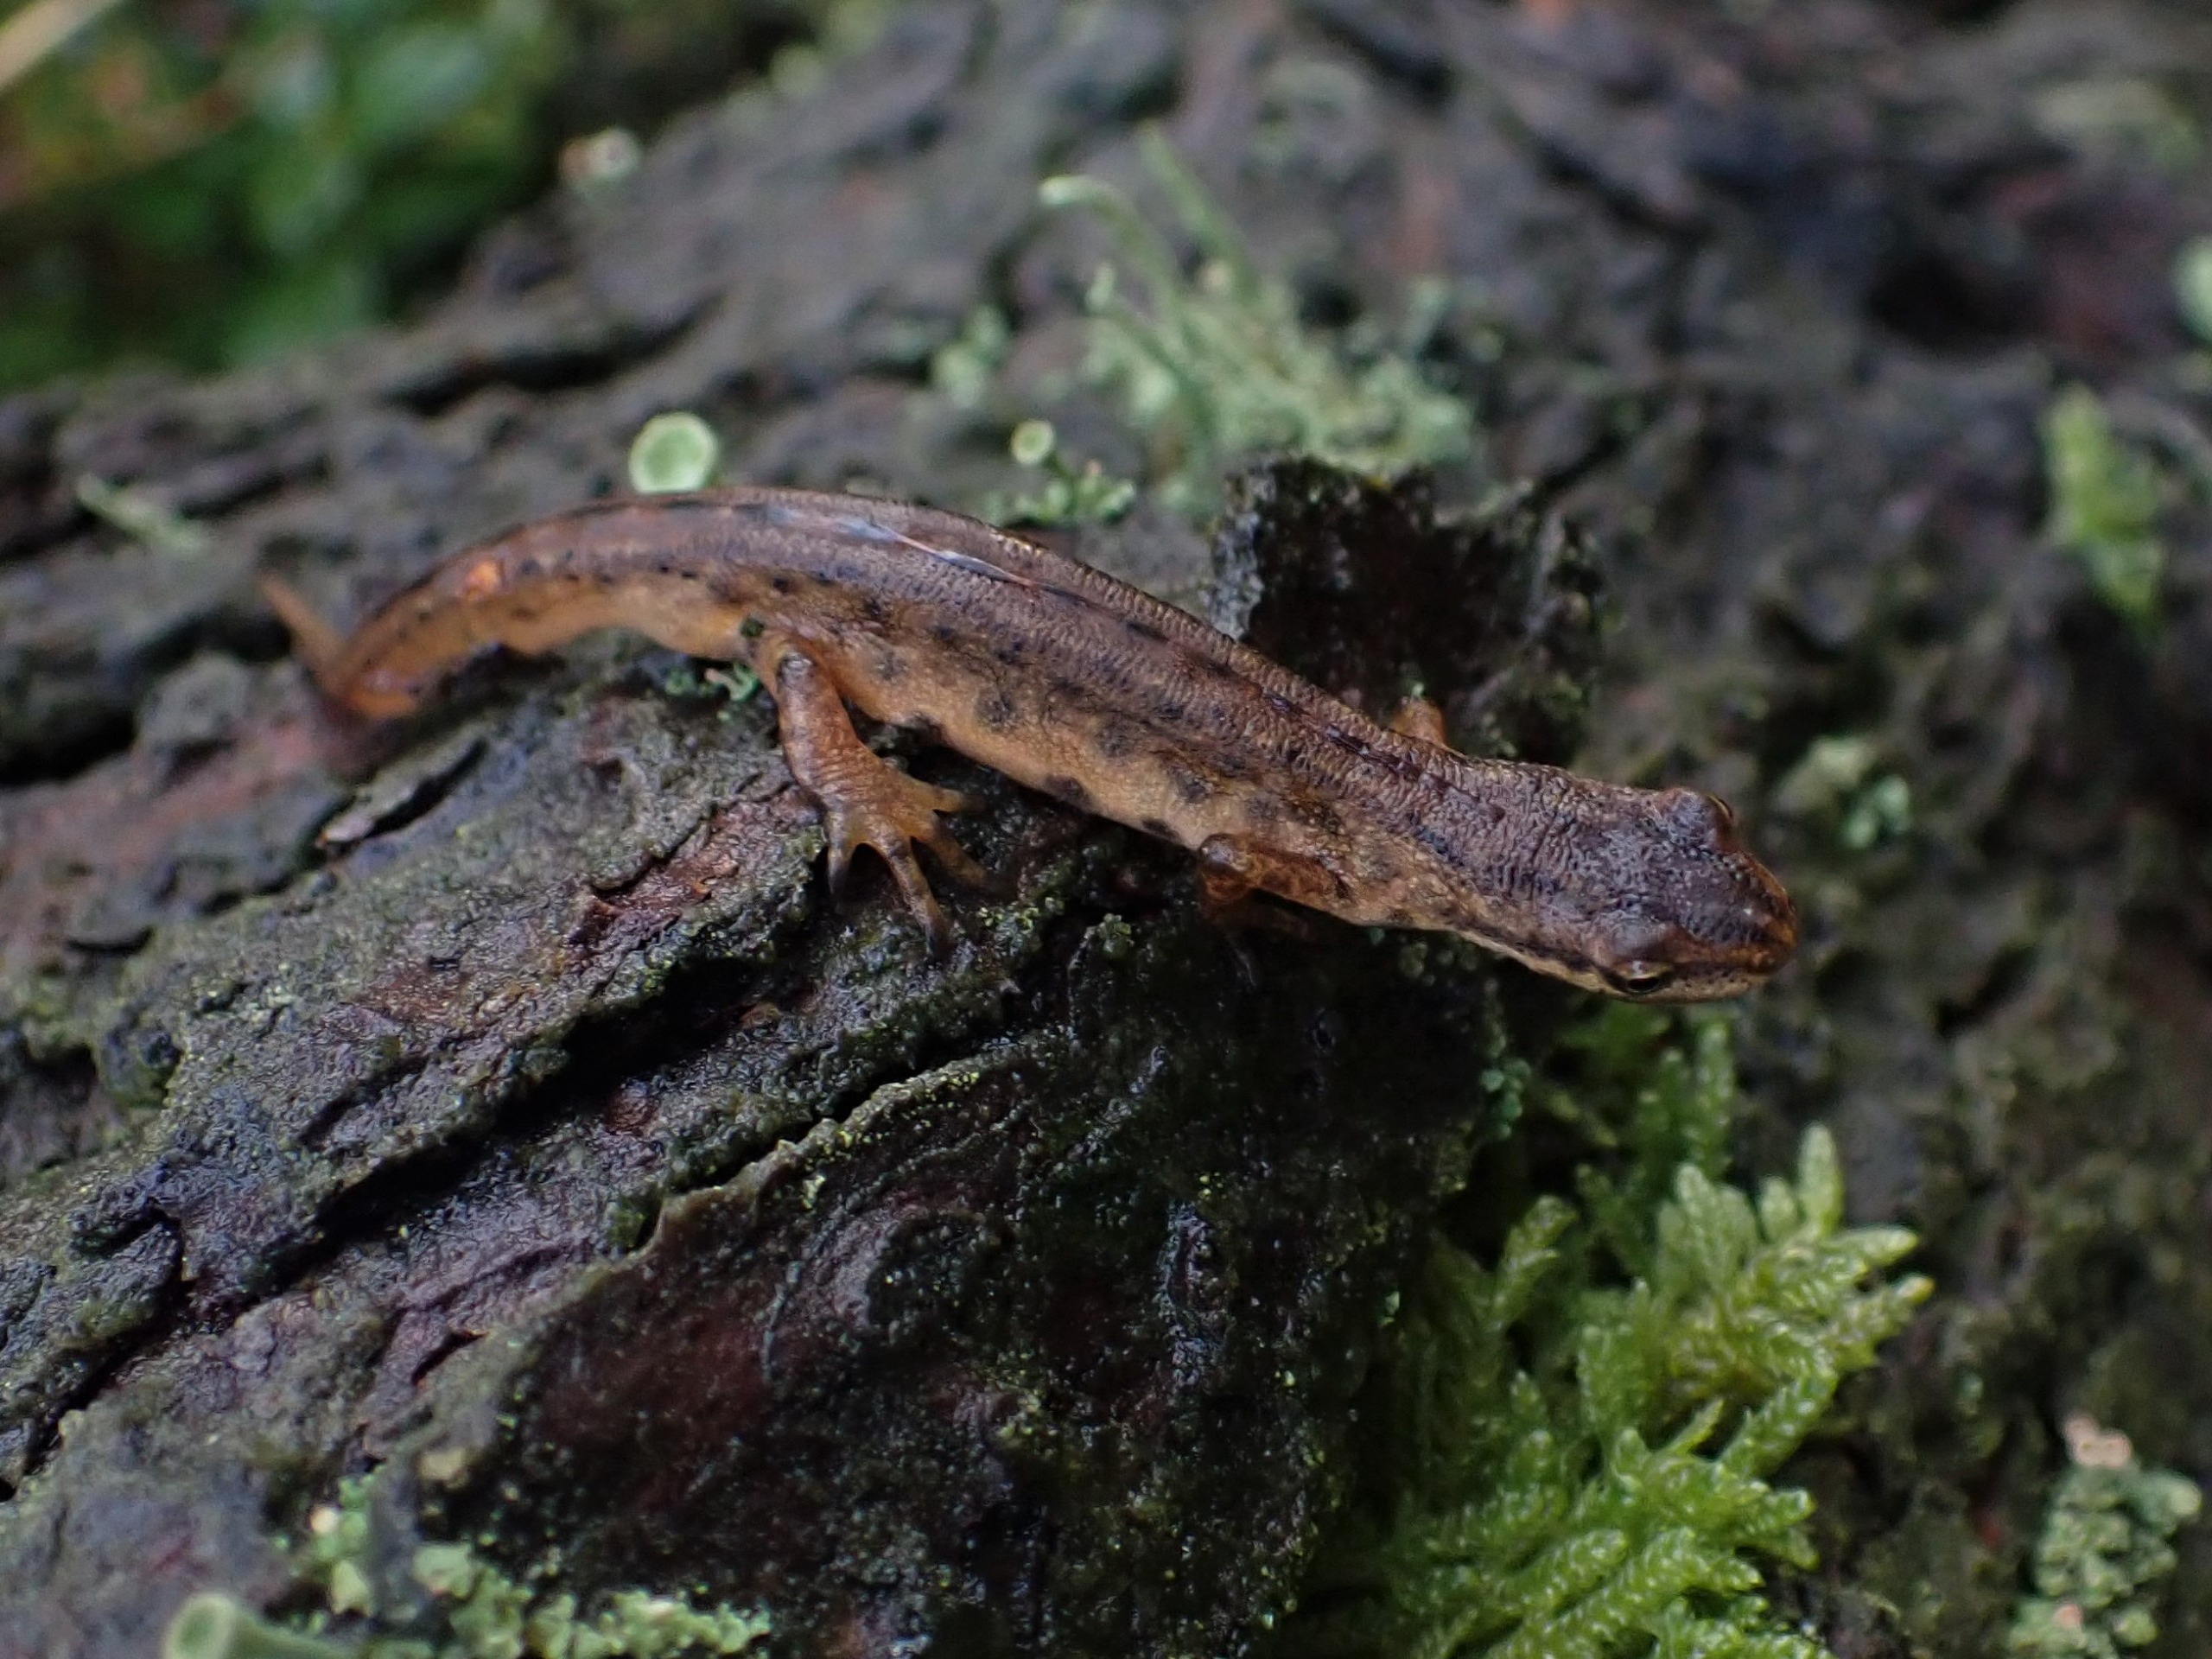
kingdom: Animalia
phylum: Chordata
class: Amphibia
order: Caudata
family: Salamandridae
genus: Lissotriton
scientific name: Lissotriton vulgaris
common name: Lille vandsalamander
